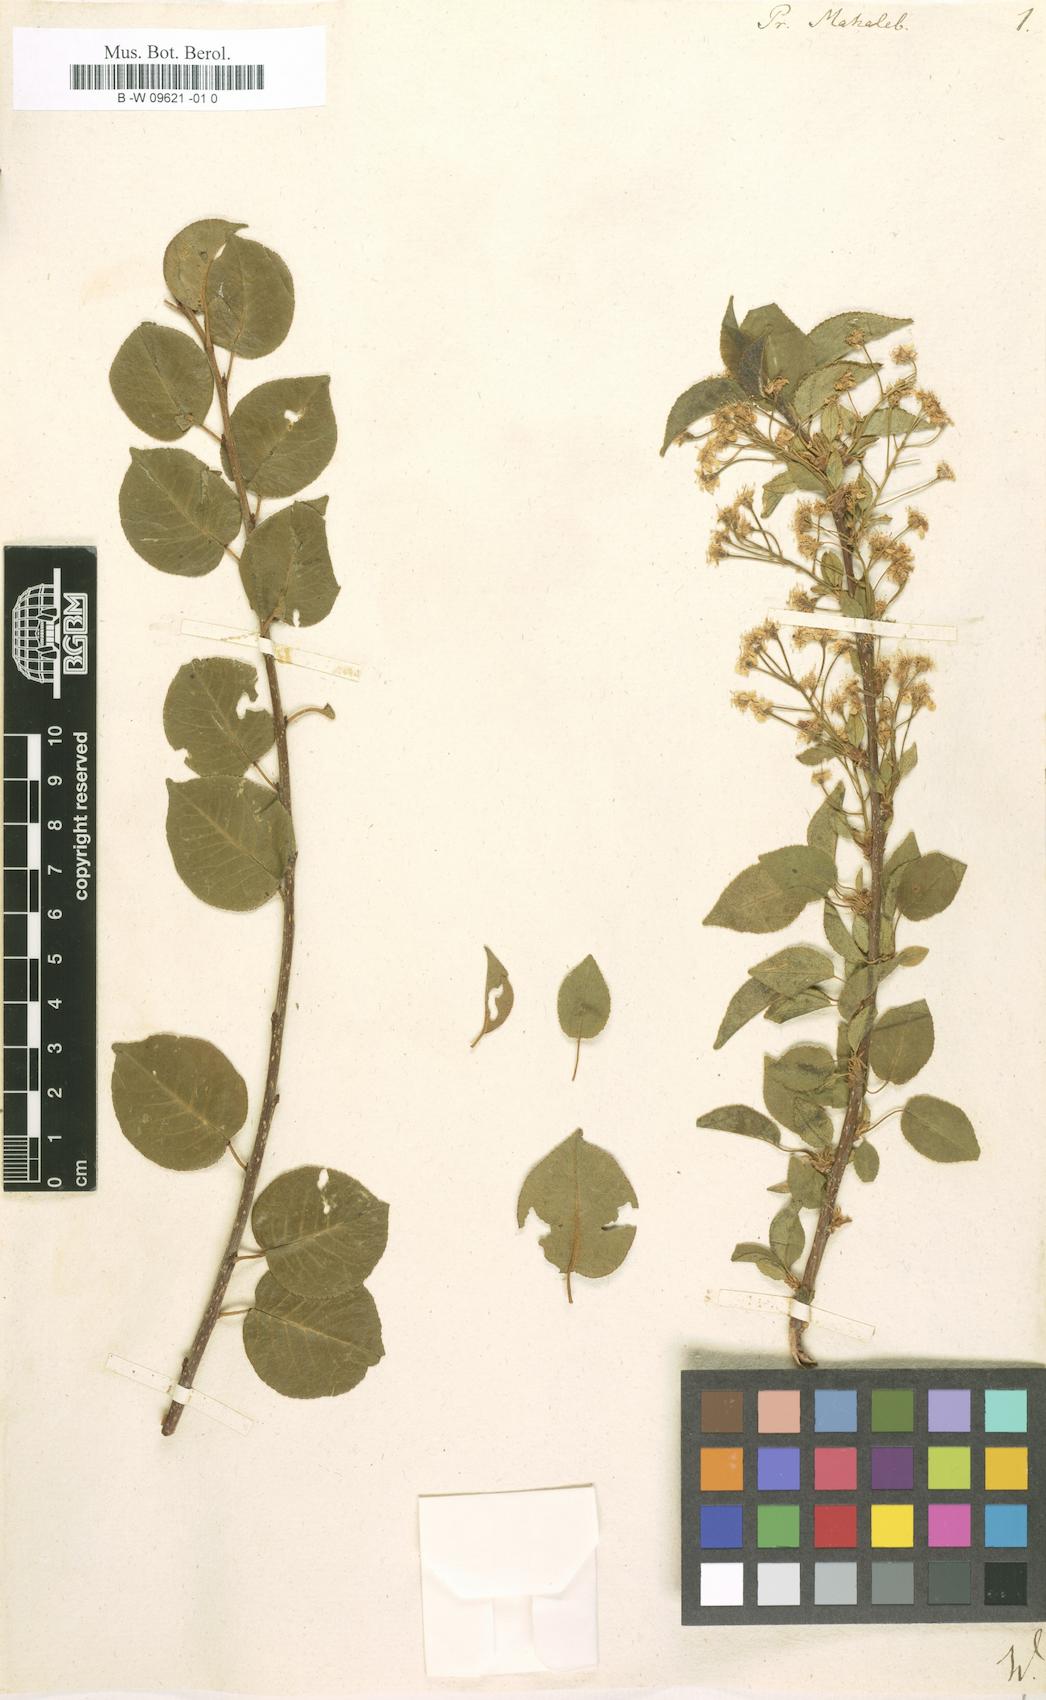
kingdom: Plantae
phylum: Tracheophyta
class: Magnoliopsida
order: Rosales
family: Rosaceae
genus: Prunus
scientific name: Prunus mahaleb
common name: Mahaleb cherry
